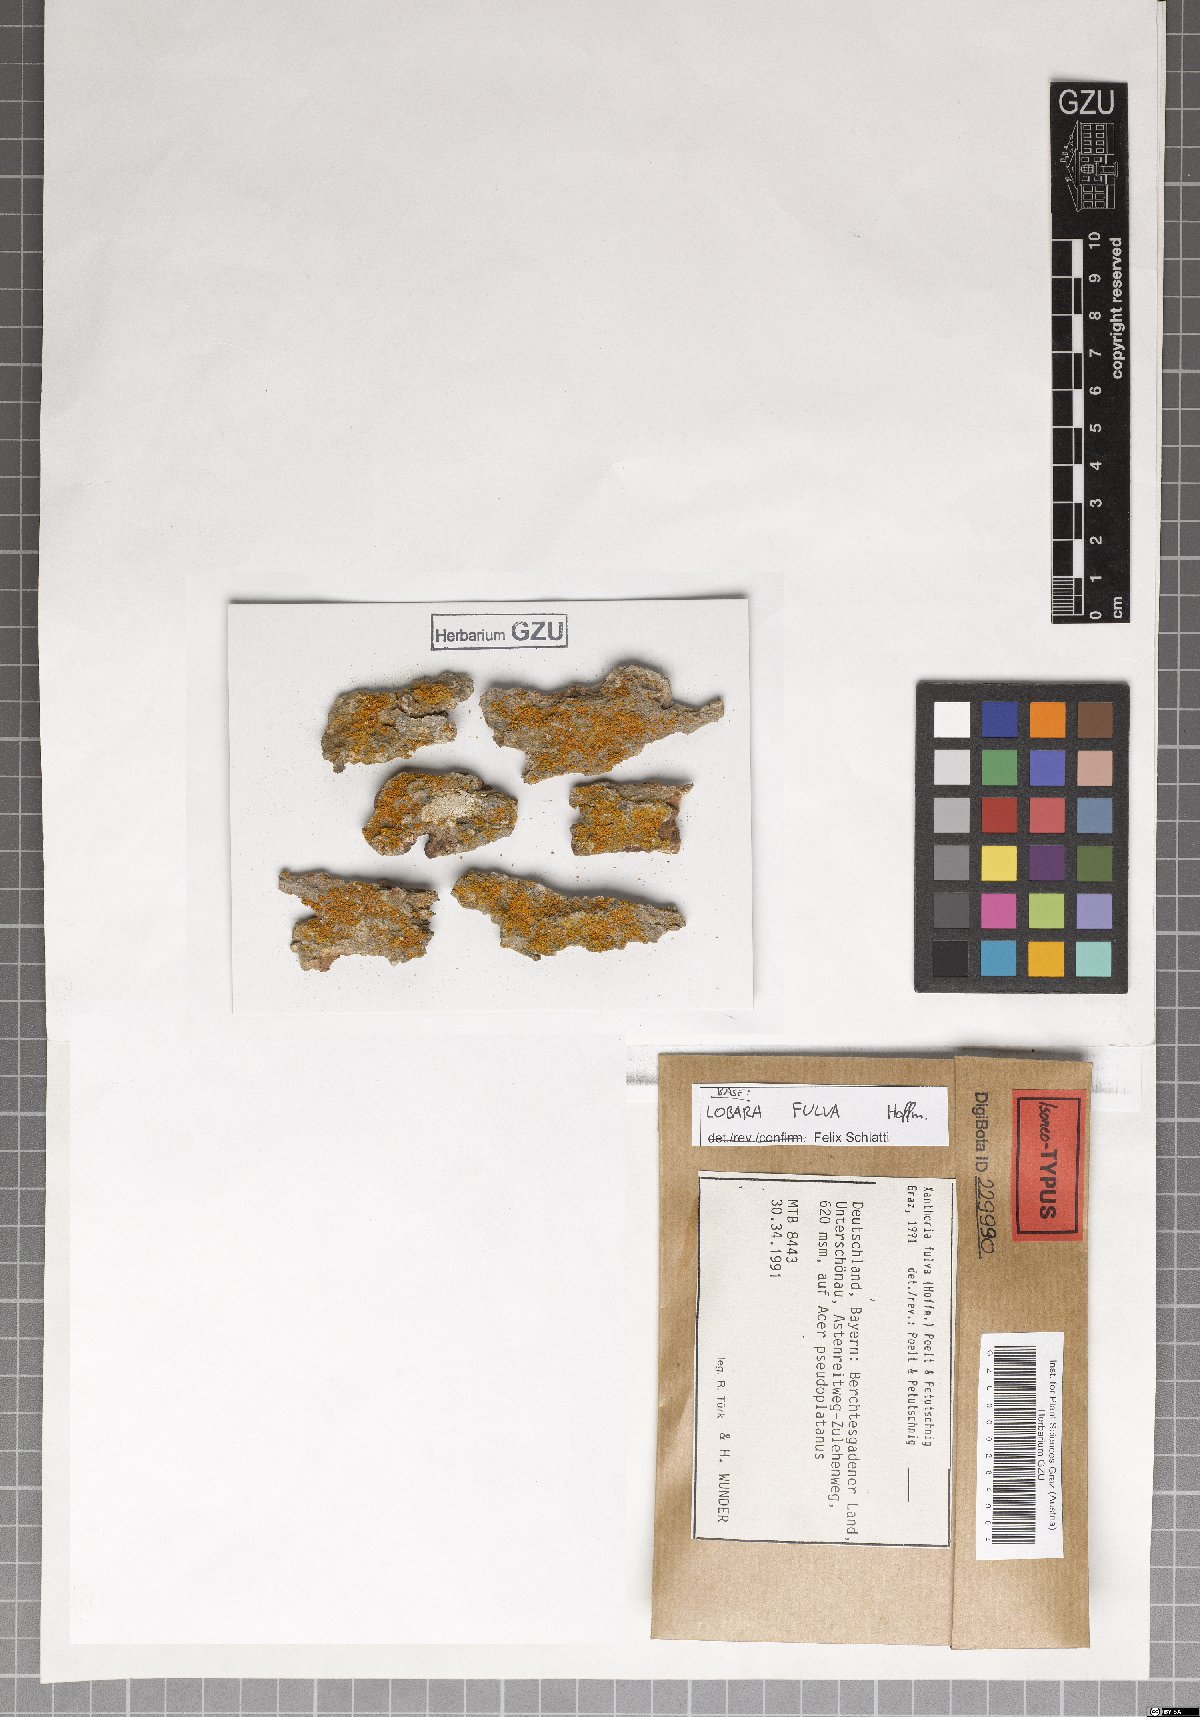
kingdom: Fungi
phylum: Ascomycota
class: Lecanoromycetes
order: Teloschistales
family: Teloschistaceae
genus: Gallowayella
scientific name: Gallowayella fulva
